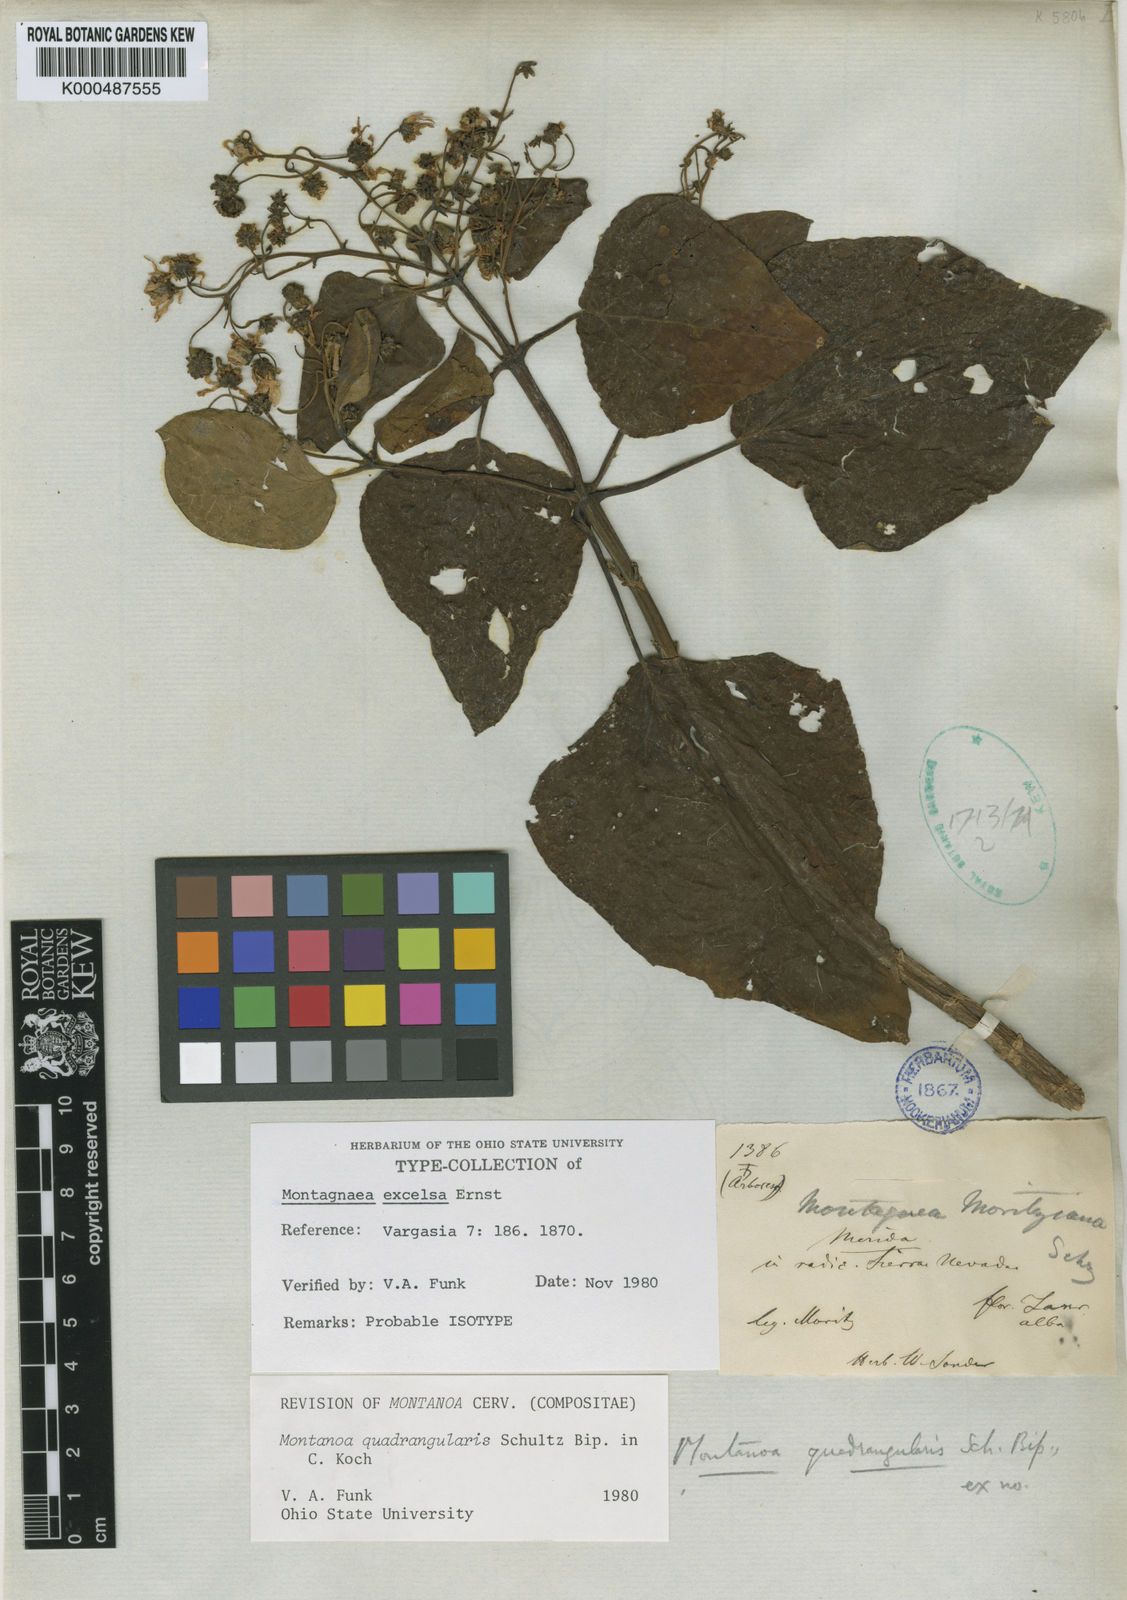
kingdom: Plantae
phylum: Tracheophyta
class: Magnoliopsida
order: Asterales
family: Asteraceae
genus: Montanoa
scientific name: Montanoa quadrangularis
